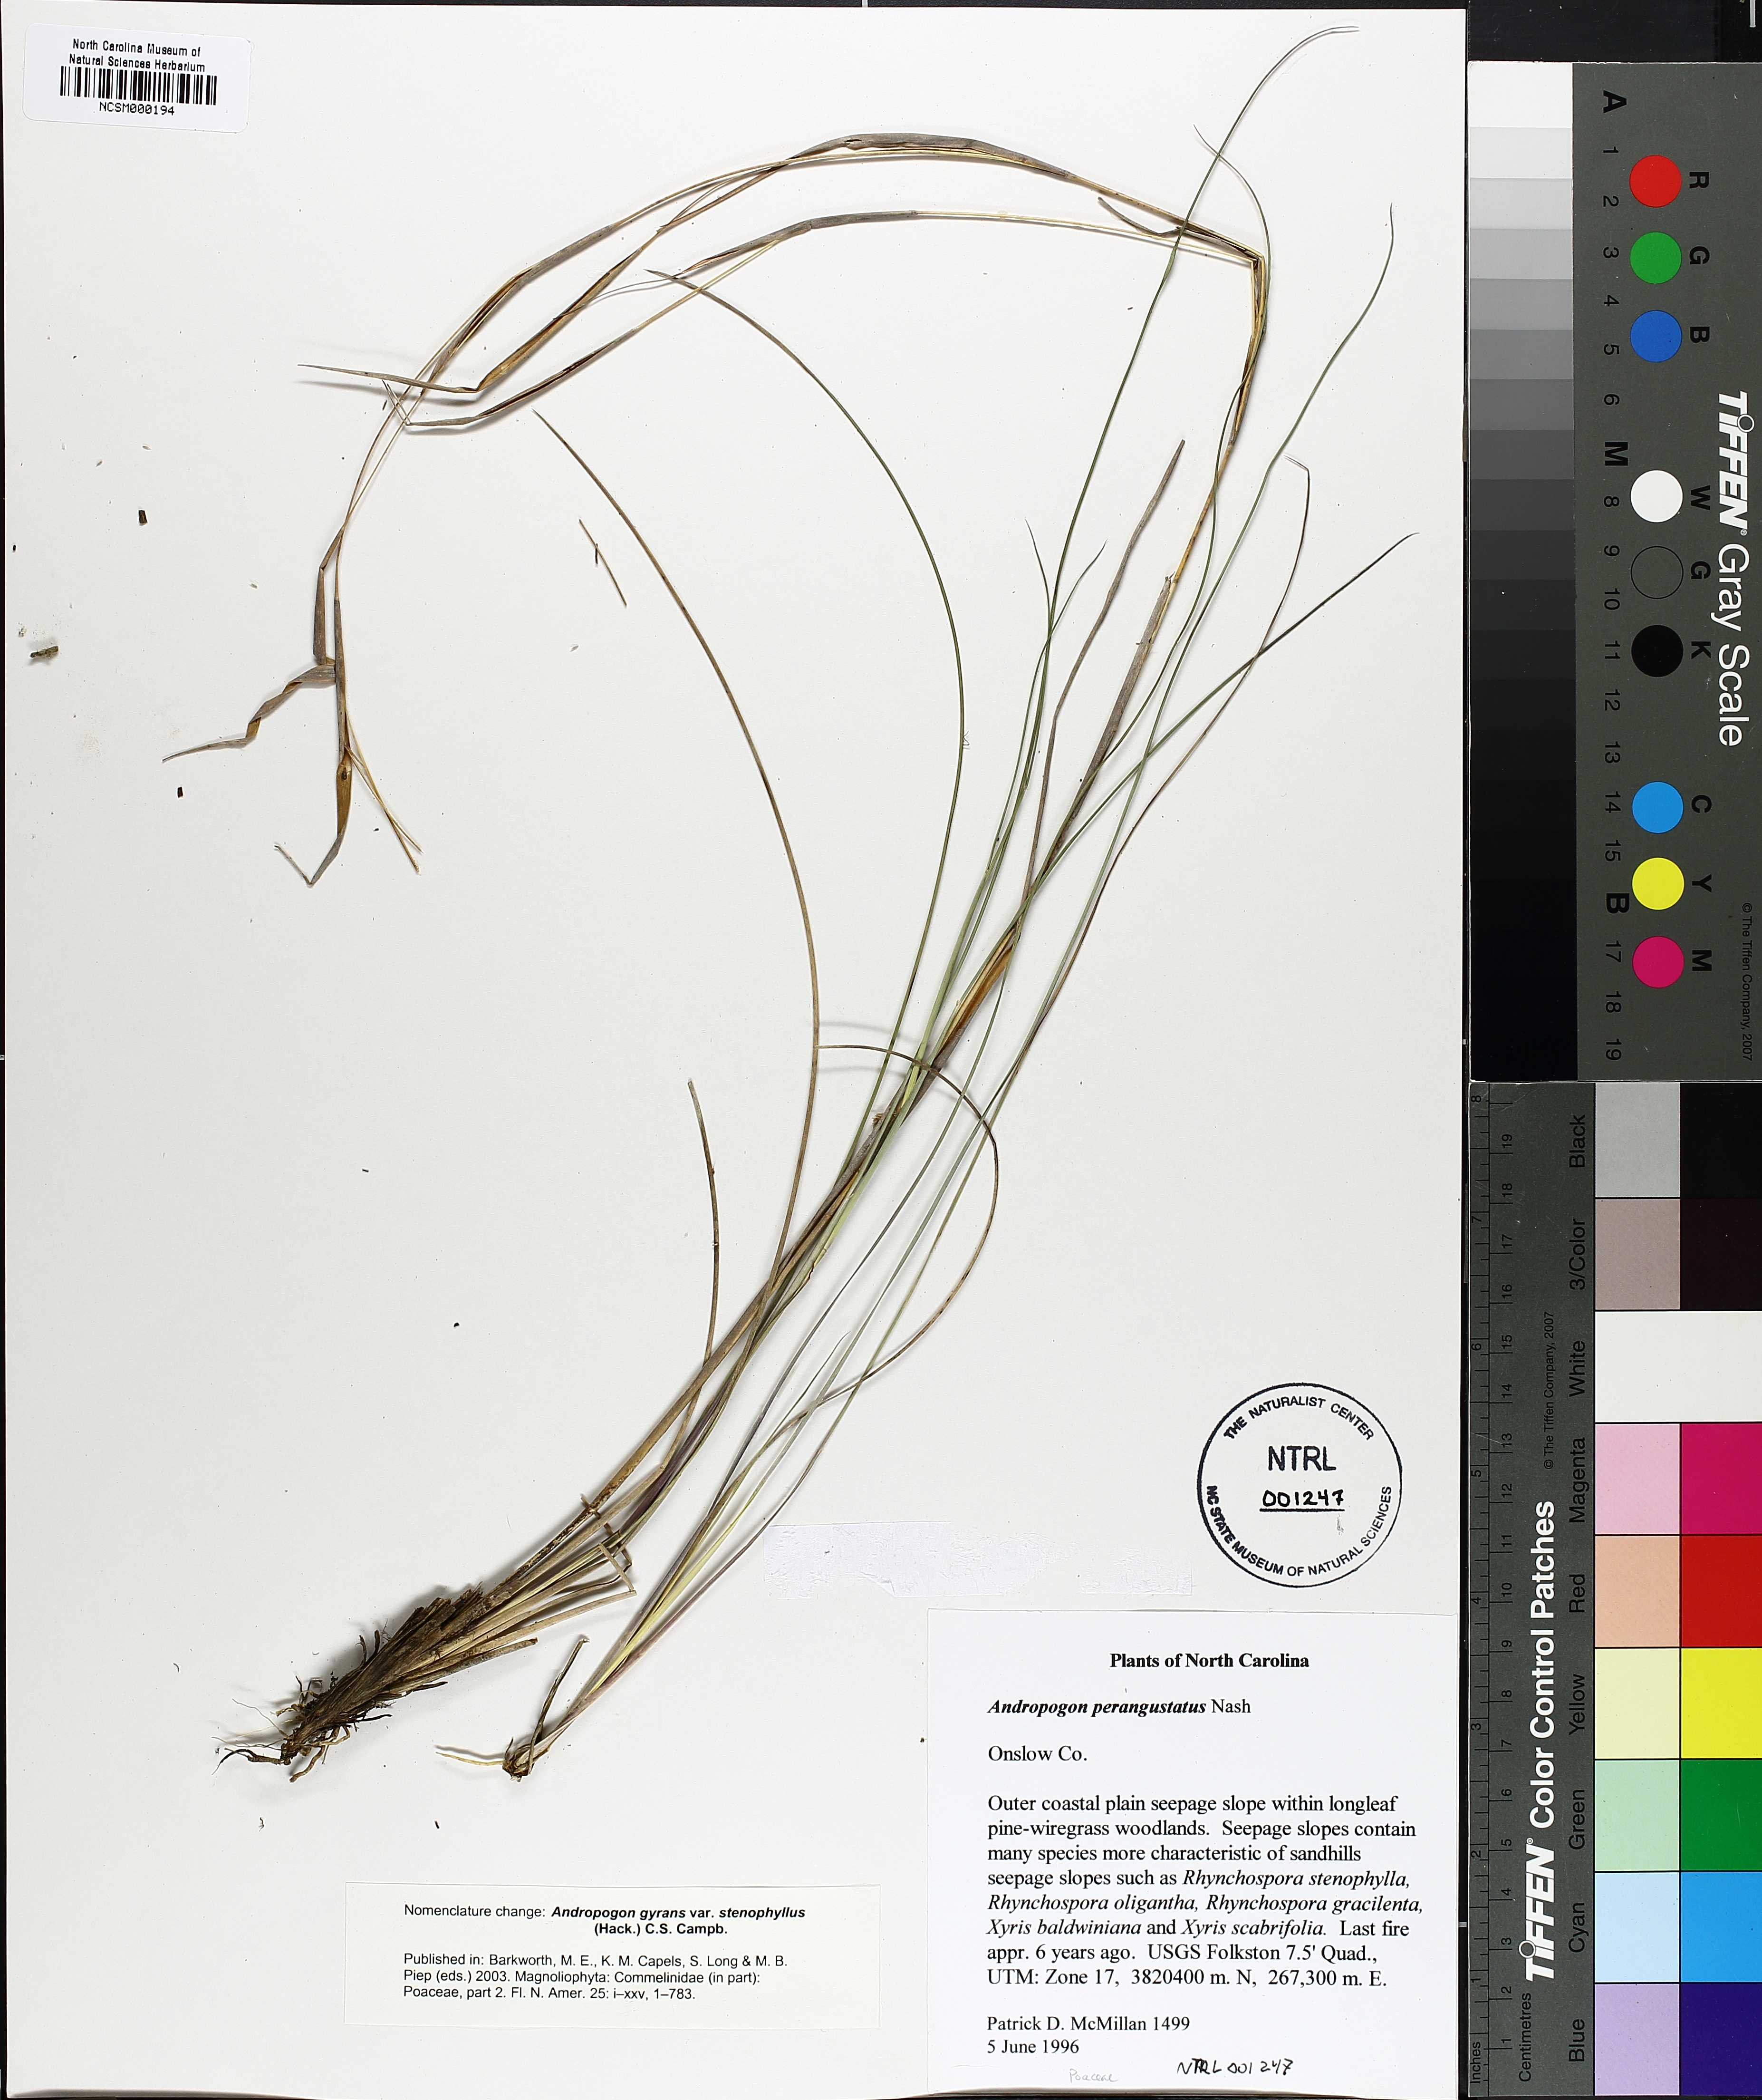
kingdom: Plantae
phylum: Tracheophyta
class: Liliopsida
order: Poales
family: Poaceae
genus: Andropogon
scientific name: Andropogon perangustatus
